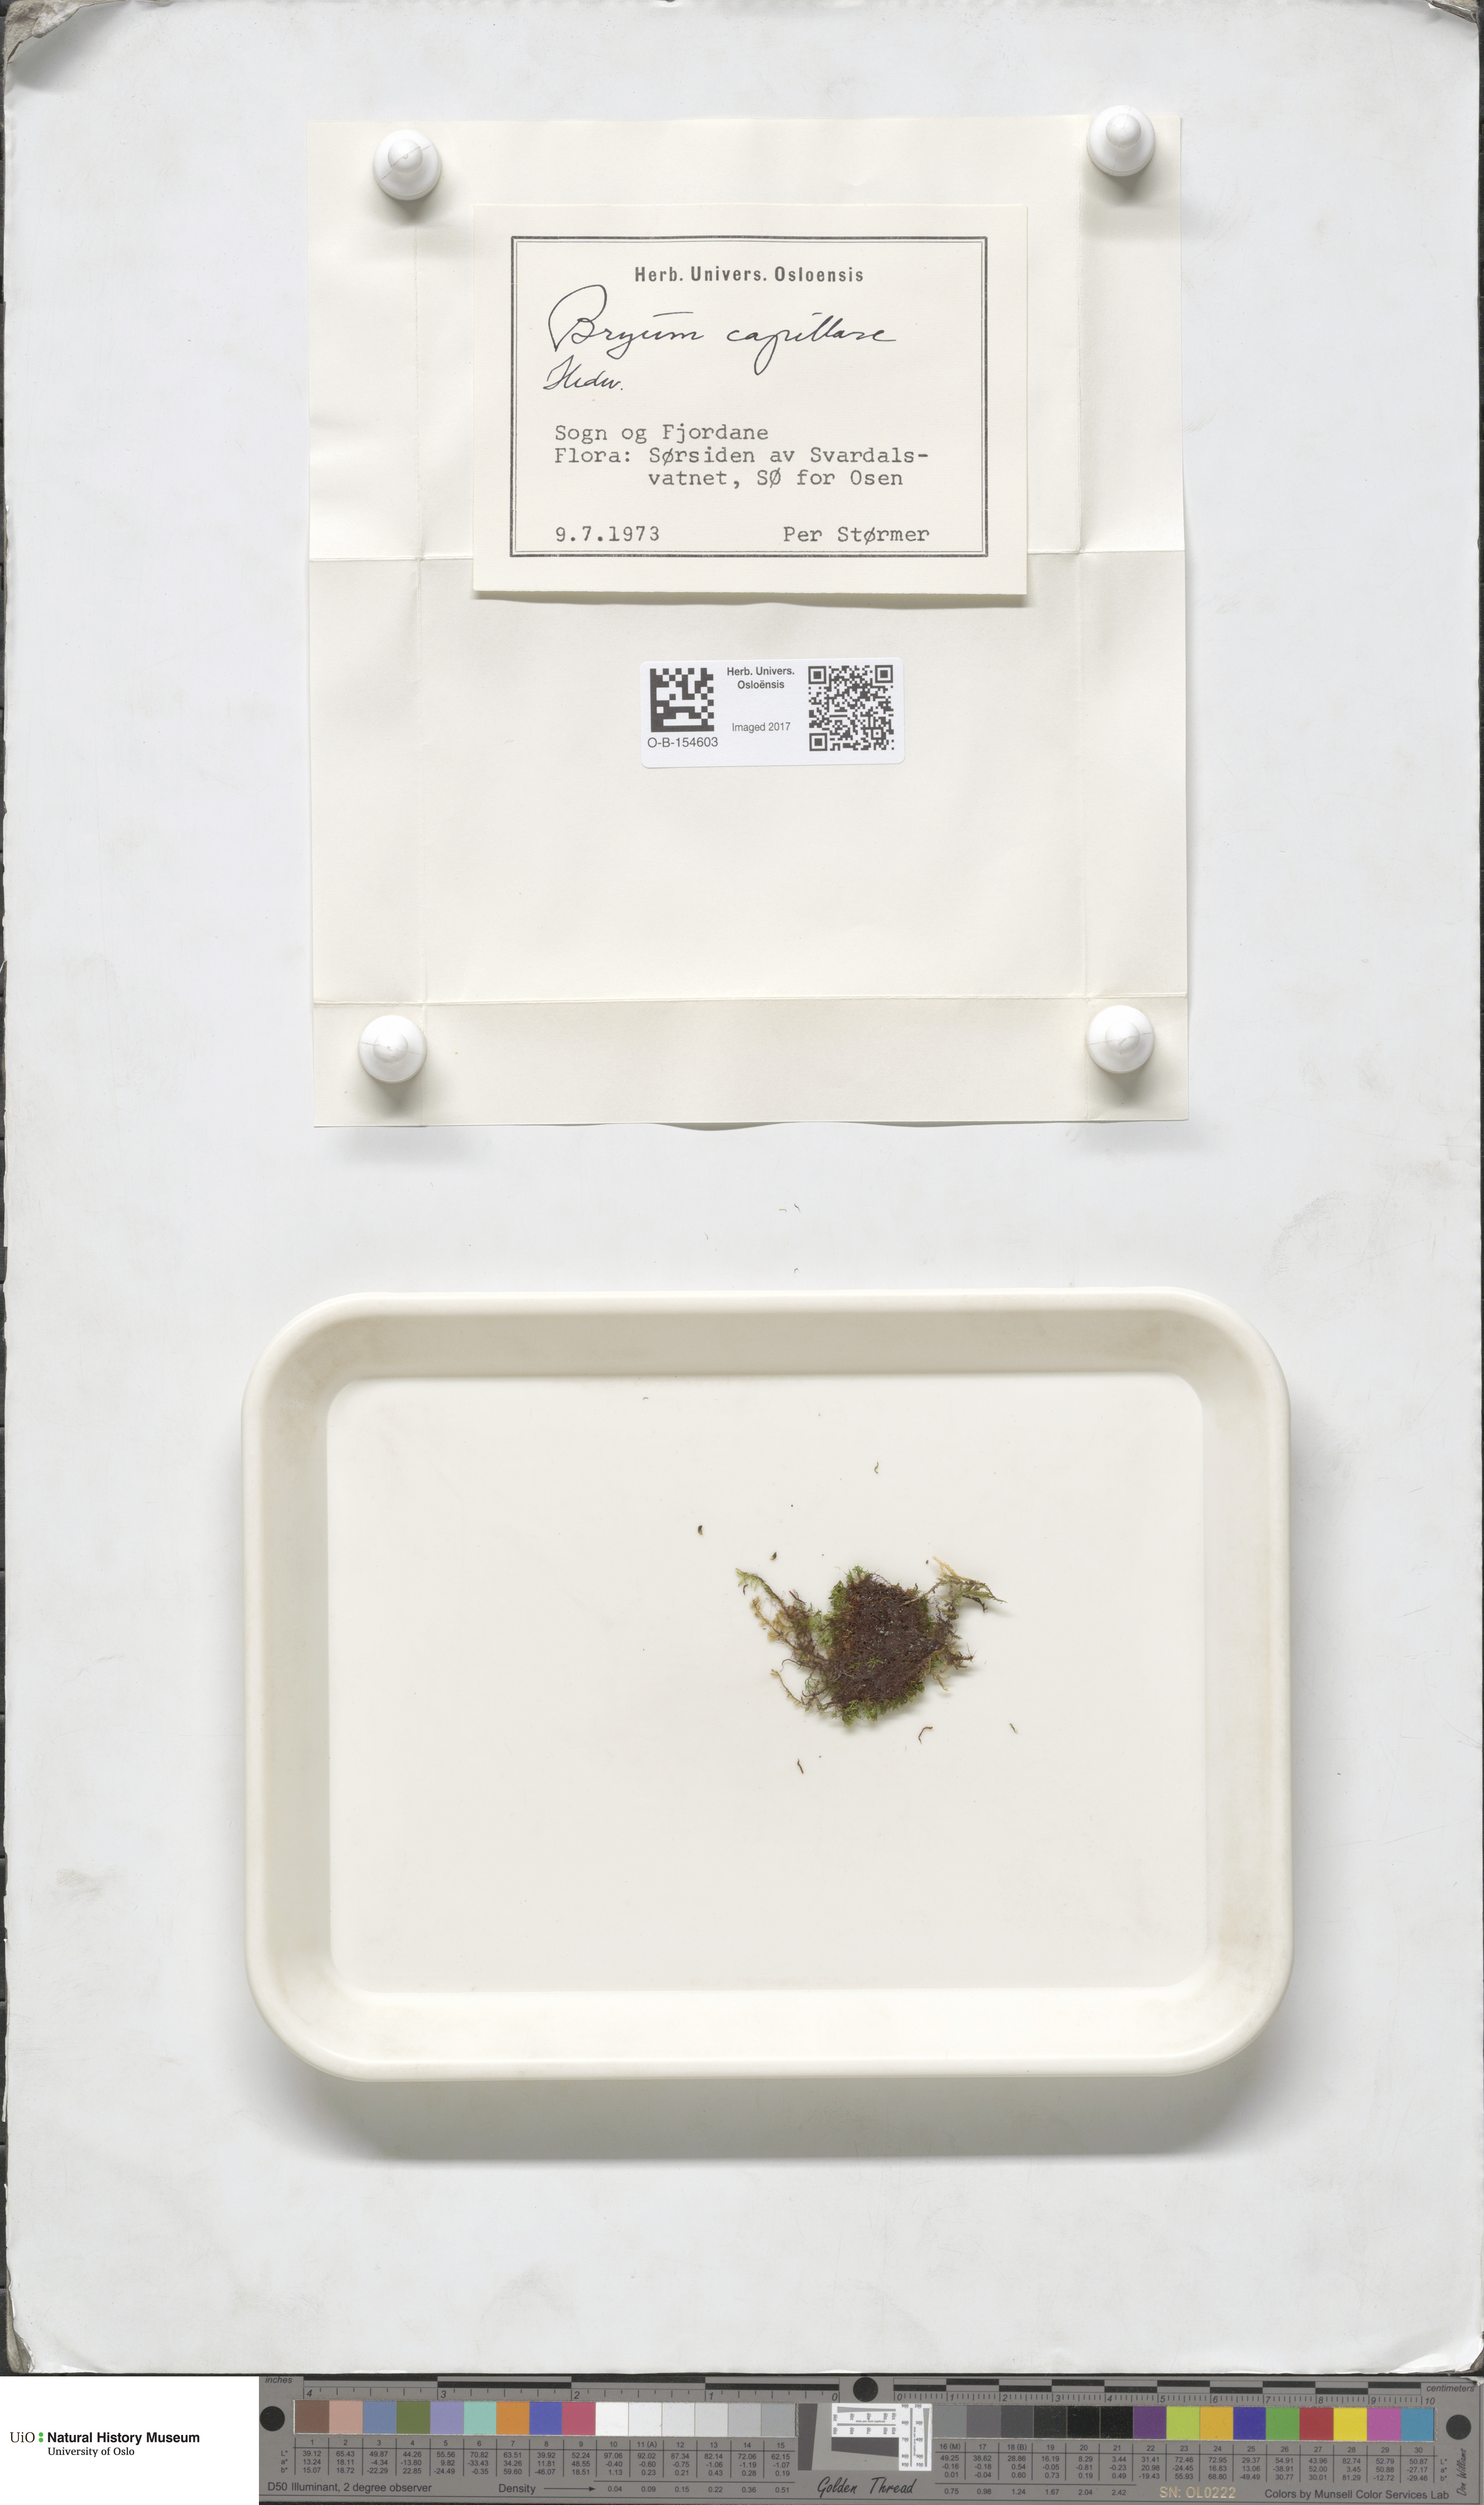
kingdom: Plantae
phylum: Bryophyta
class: Bryopsida
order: Bryales
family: Bryaceae
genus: Rosulabryum
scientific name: Rosulabryum capillare
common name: Capillary thread-moss
